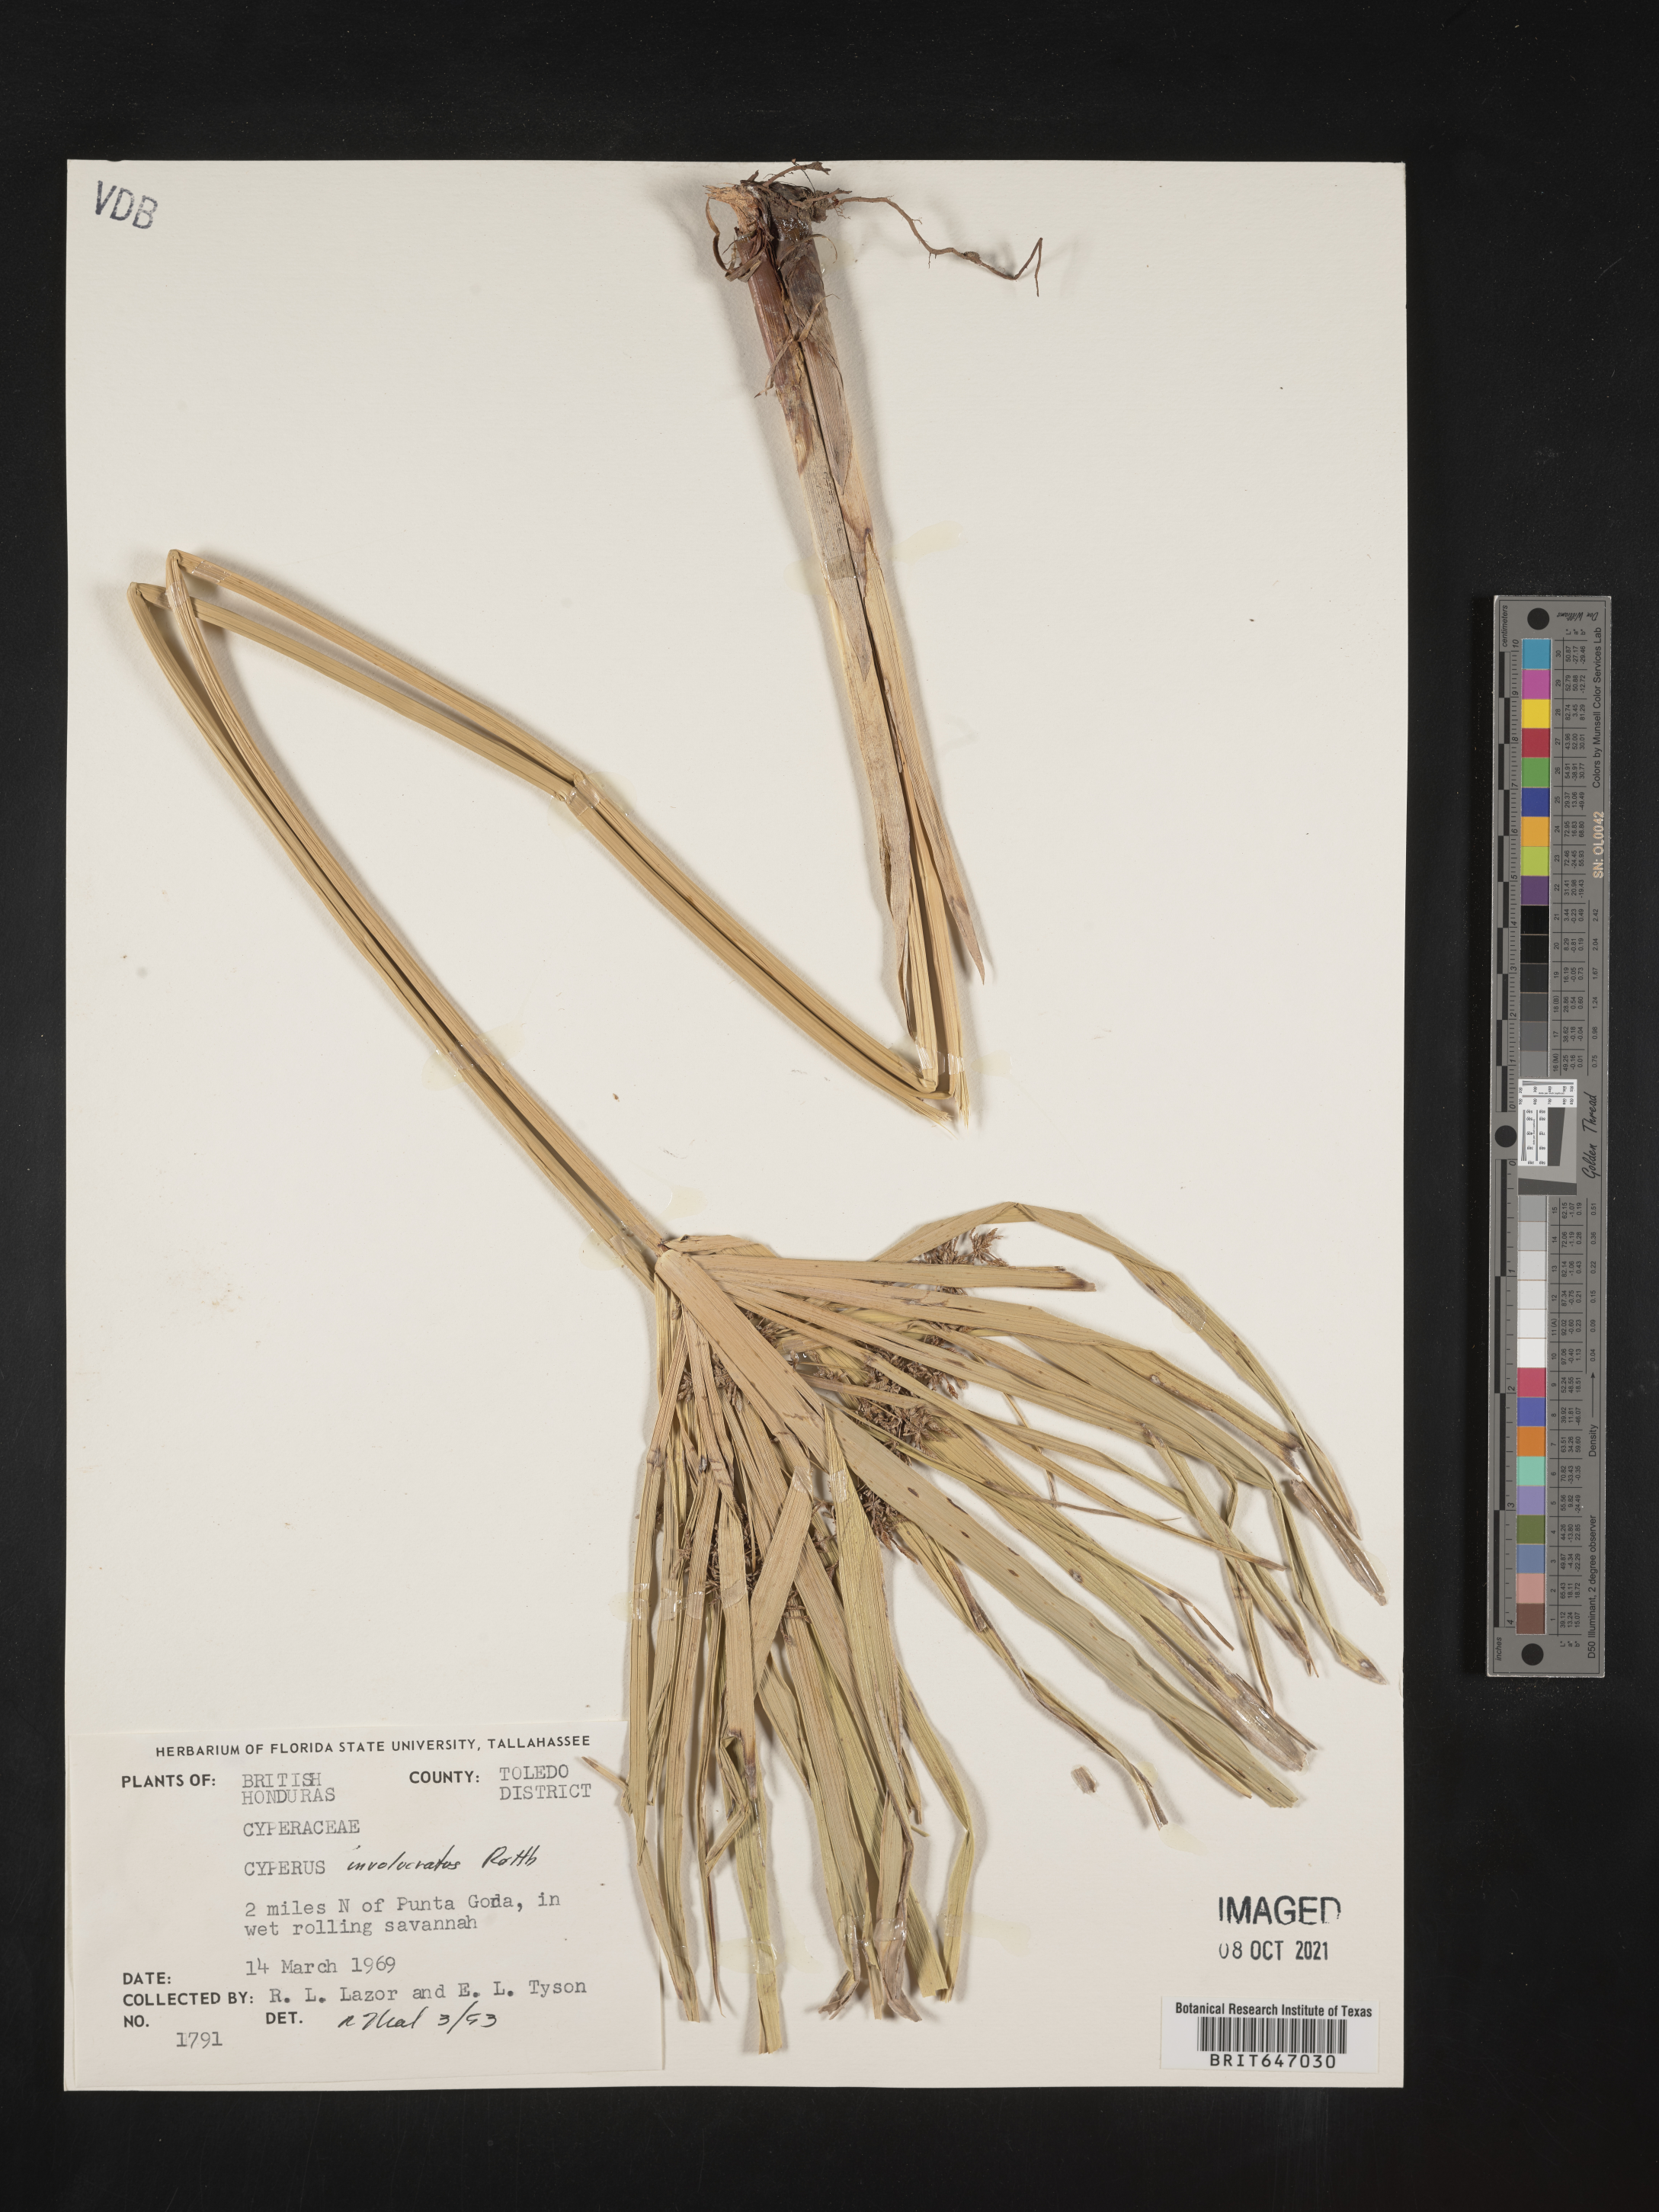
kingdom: Plantae
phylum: Tracheophyta
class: Liliopsida
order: Poales
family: Cyperaceae
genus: Cyperus
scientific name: Cyperus alternifolius
